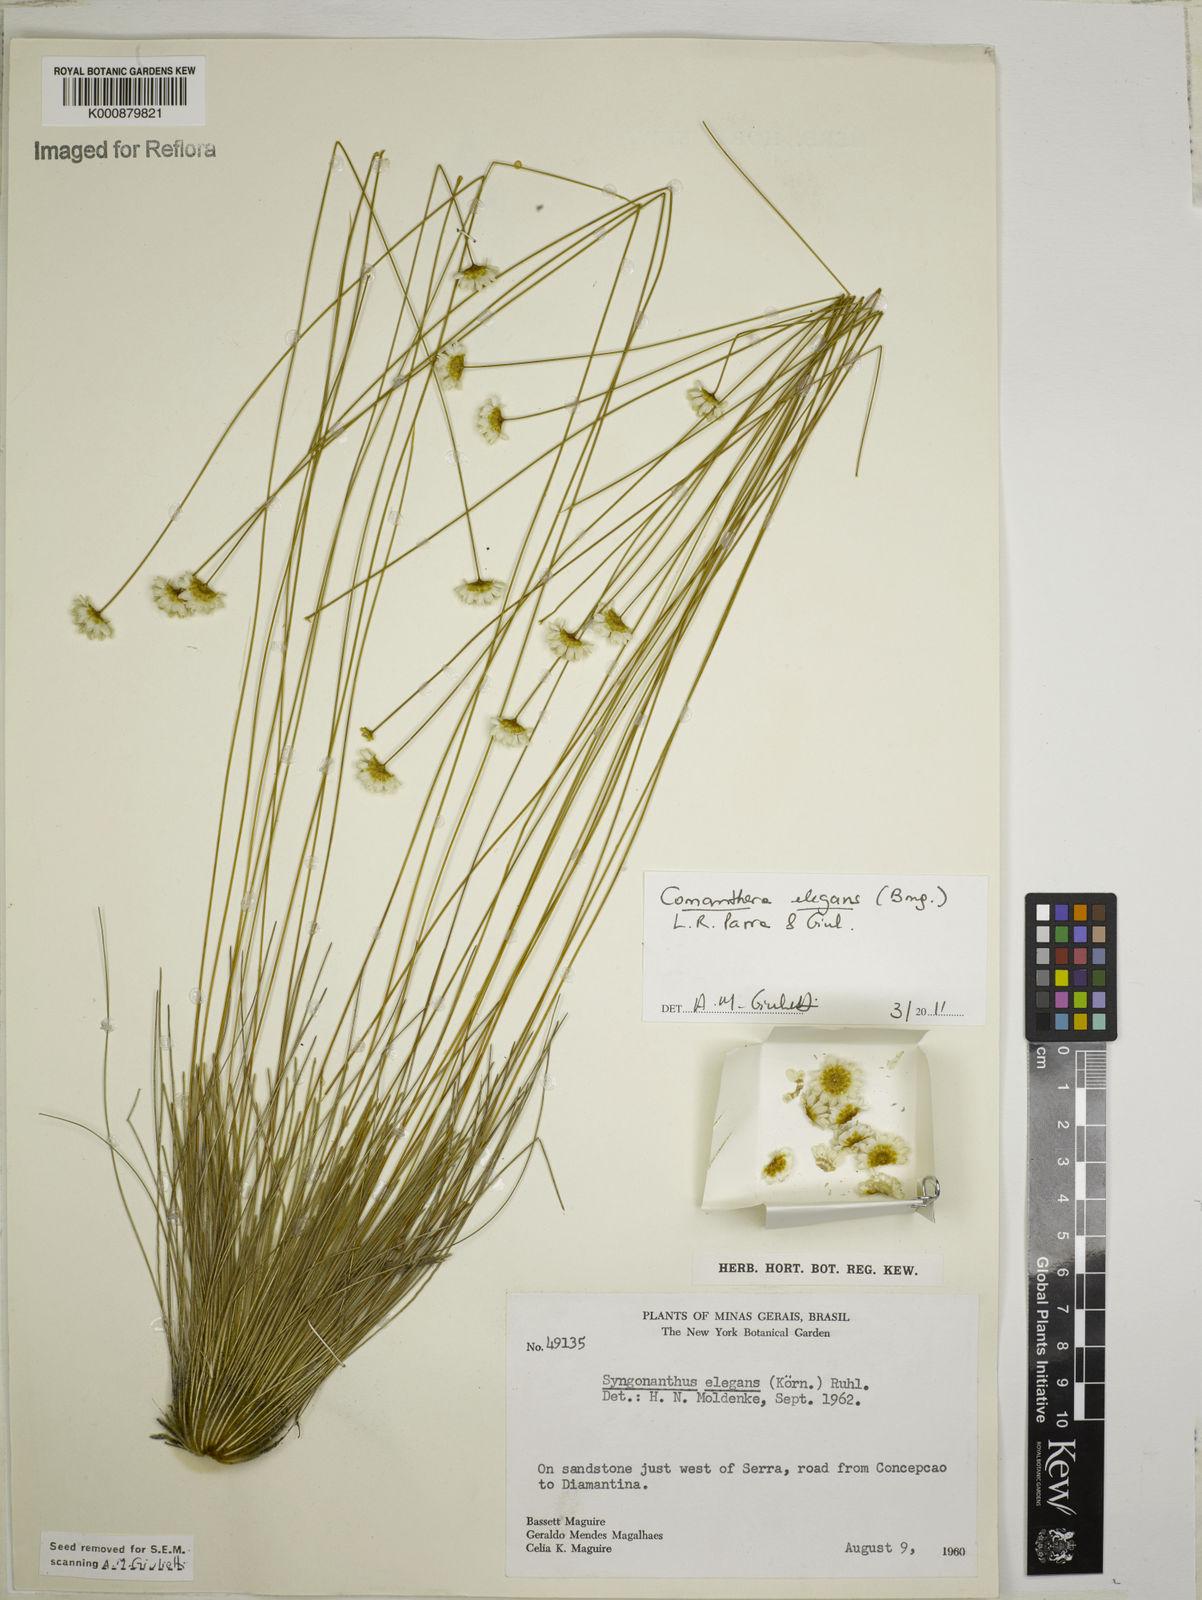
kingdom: Plantae
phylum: Tracheophyta
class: Liliopsida
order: Poales
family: Eriocaulaceae
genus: Comanthera
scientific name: Comanthera elegans
